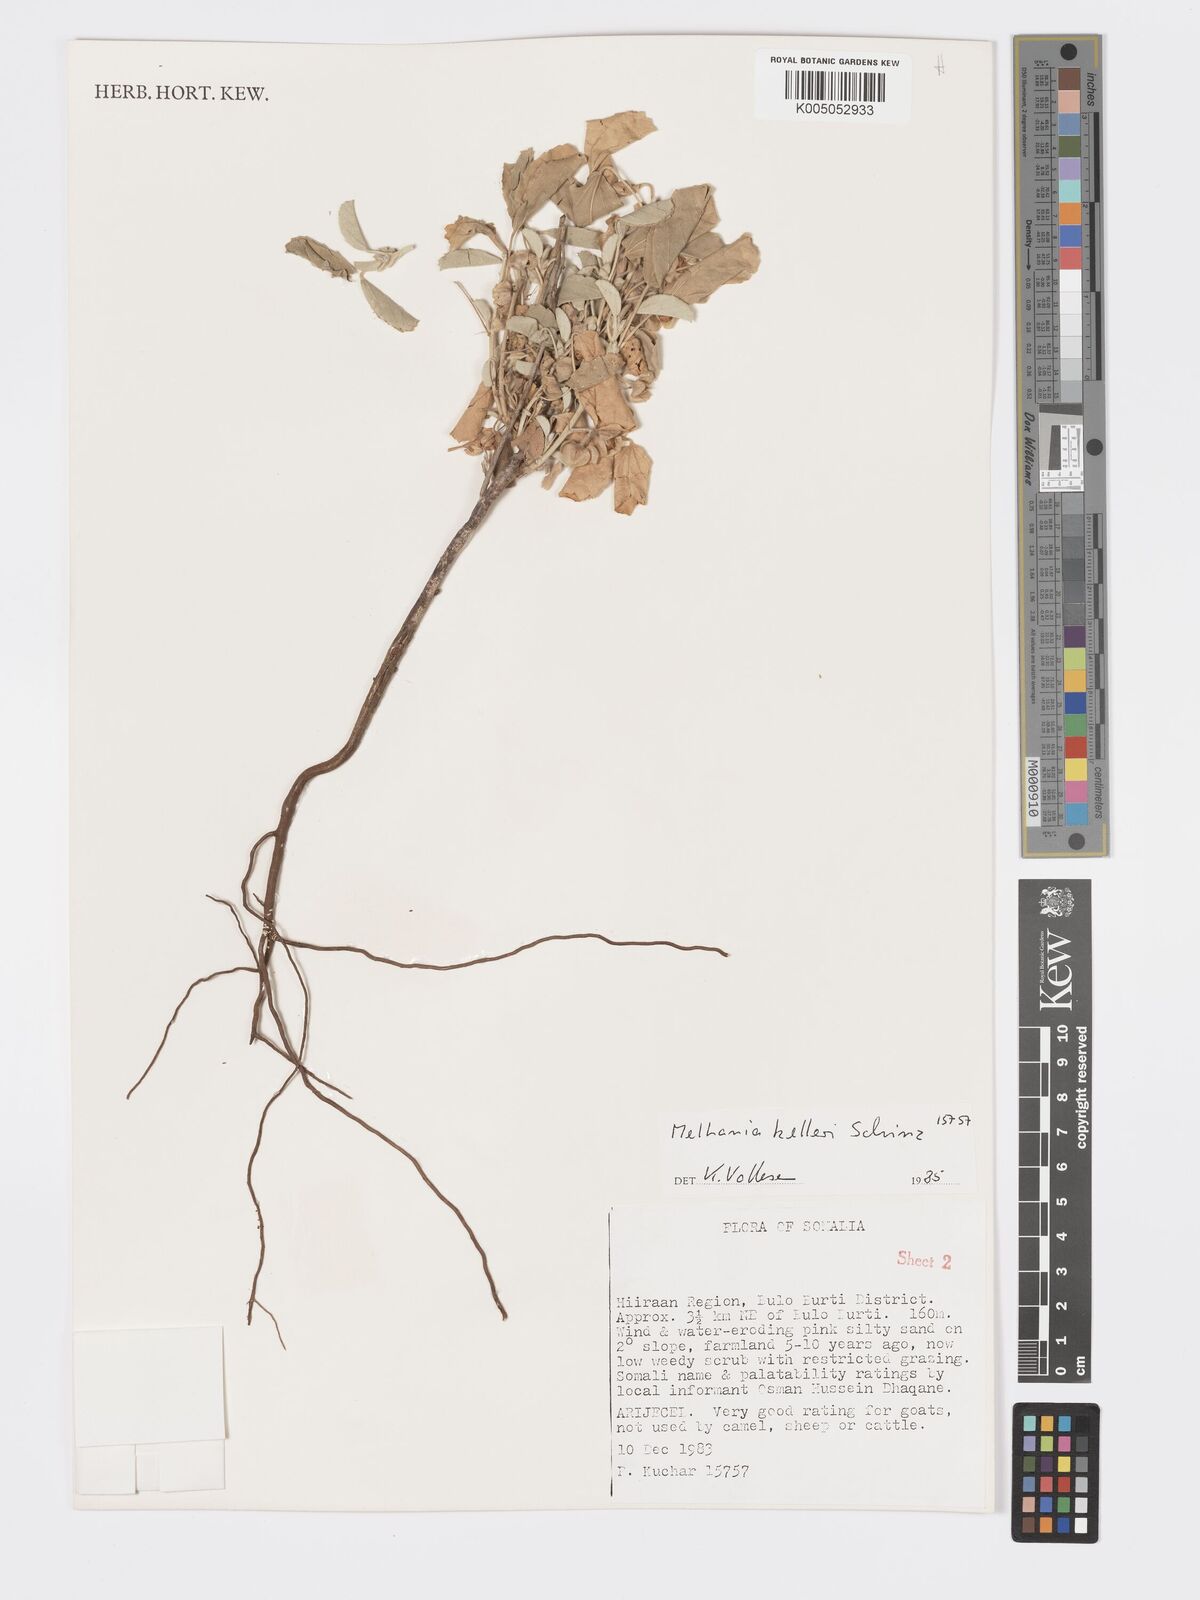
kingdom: Plantae
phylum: Tracheophyta
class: Magnoliopsida
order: Malvales
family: Malvaceae
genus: Melhania
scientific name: Melhania kelleri
